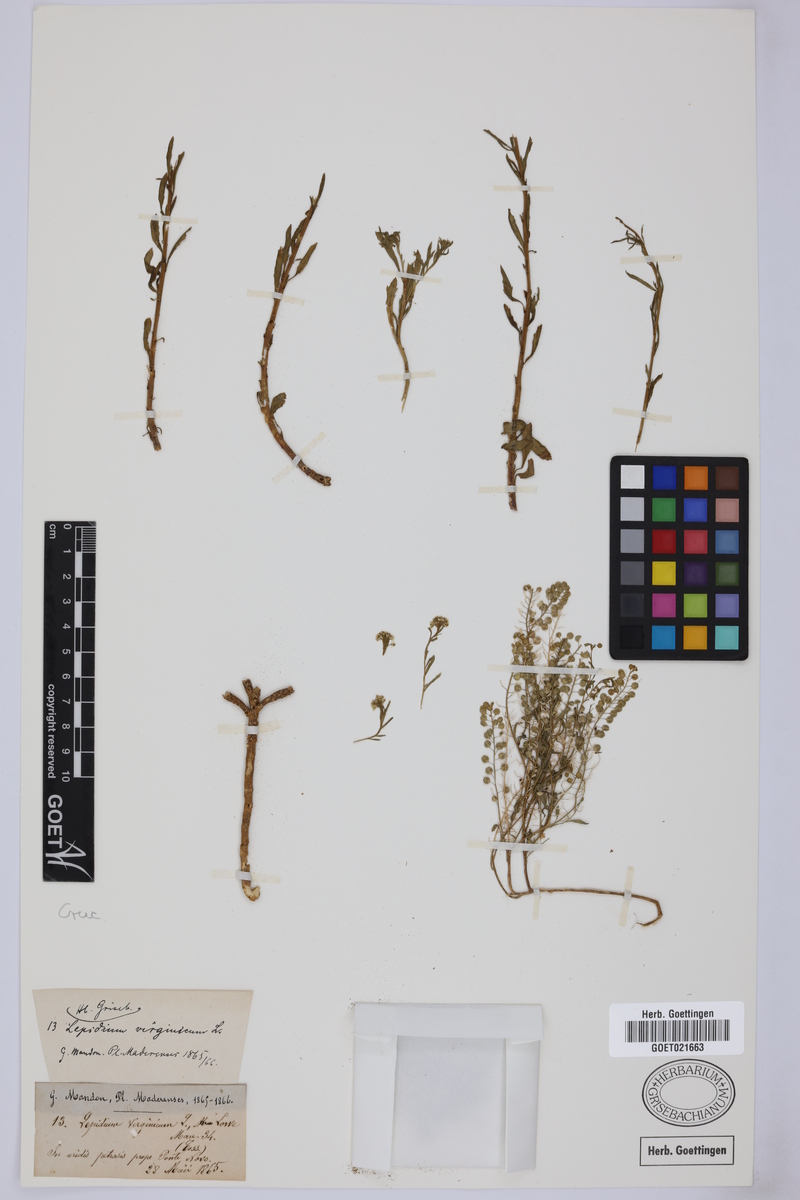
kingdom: Plantae
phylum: Tracheophyta
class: Magnoliopsida
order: Brassicales
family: Brassicaceae
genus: Lepidium
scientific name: Lepidium virginicum
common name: Least pepperwort
